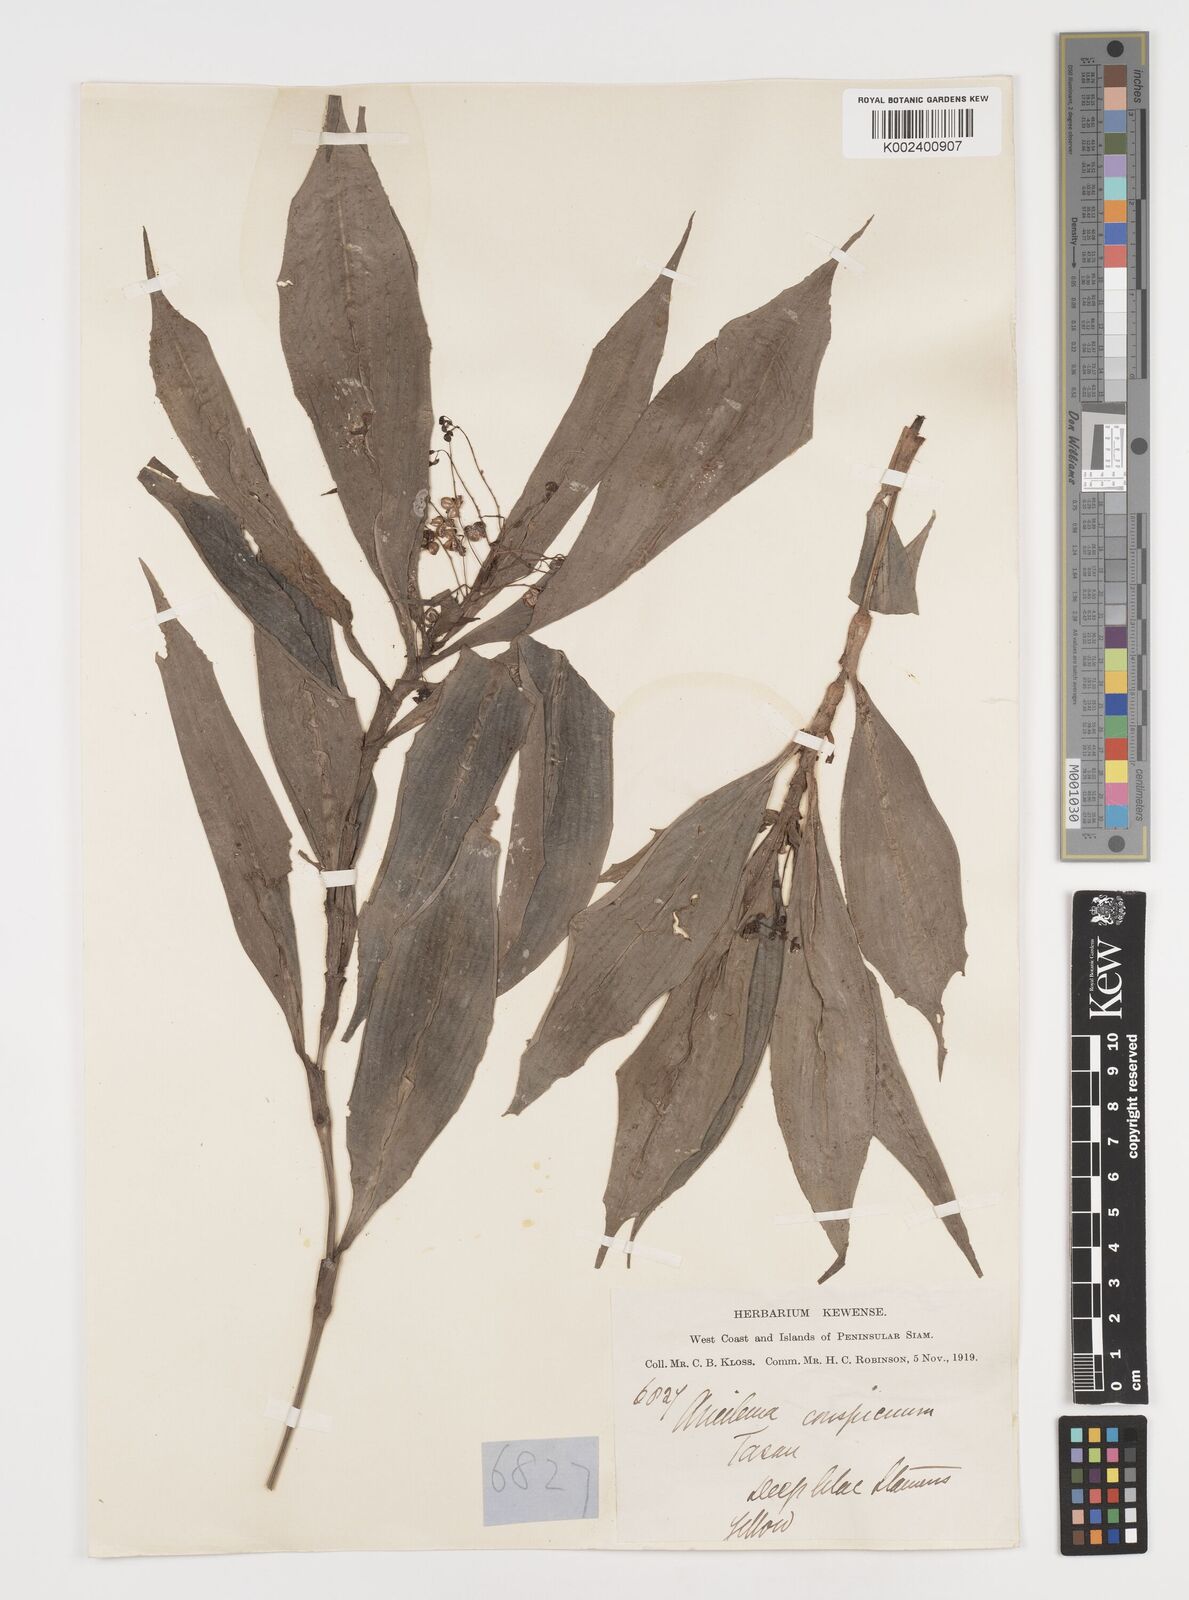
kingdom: Plantae
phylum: Tracheophyta
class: Liliopsida
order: Commelinales
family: Commelinaceae
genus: Dictyospermum
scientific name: Dictyospermum conspicuum
